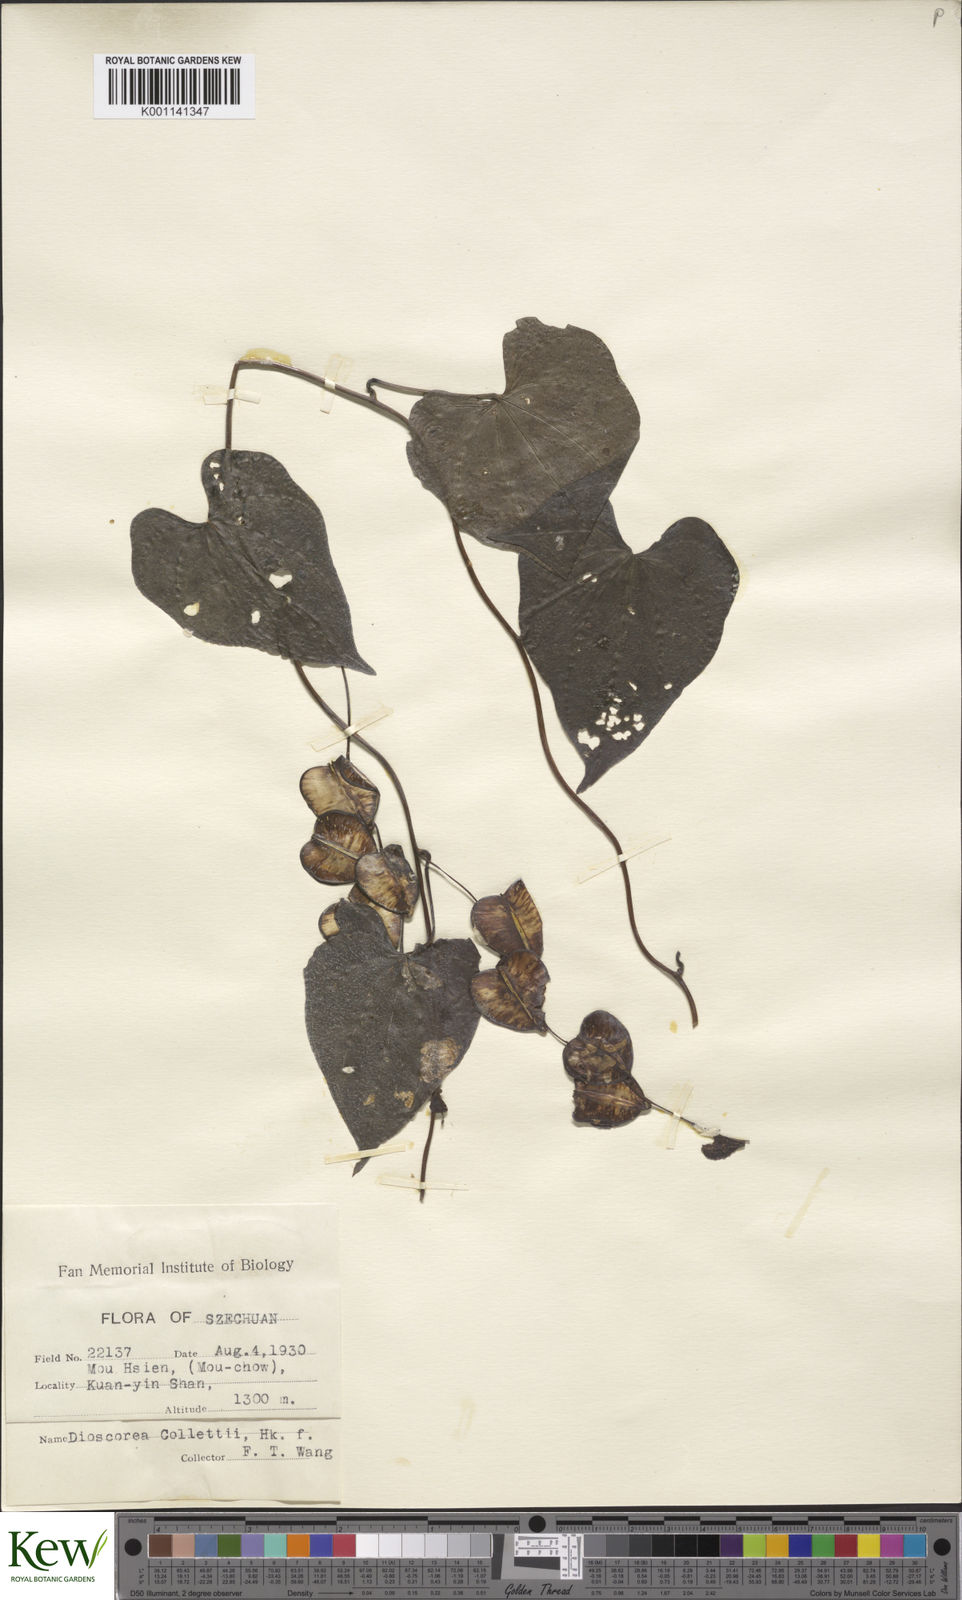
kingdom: Plantae
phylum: Tracheophyta
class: Liliopsida
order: Dioscoreales
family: Dioscoreaceae
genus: Dioscorea
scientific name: Dioscorea collettii
